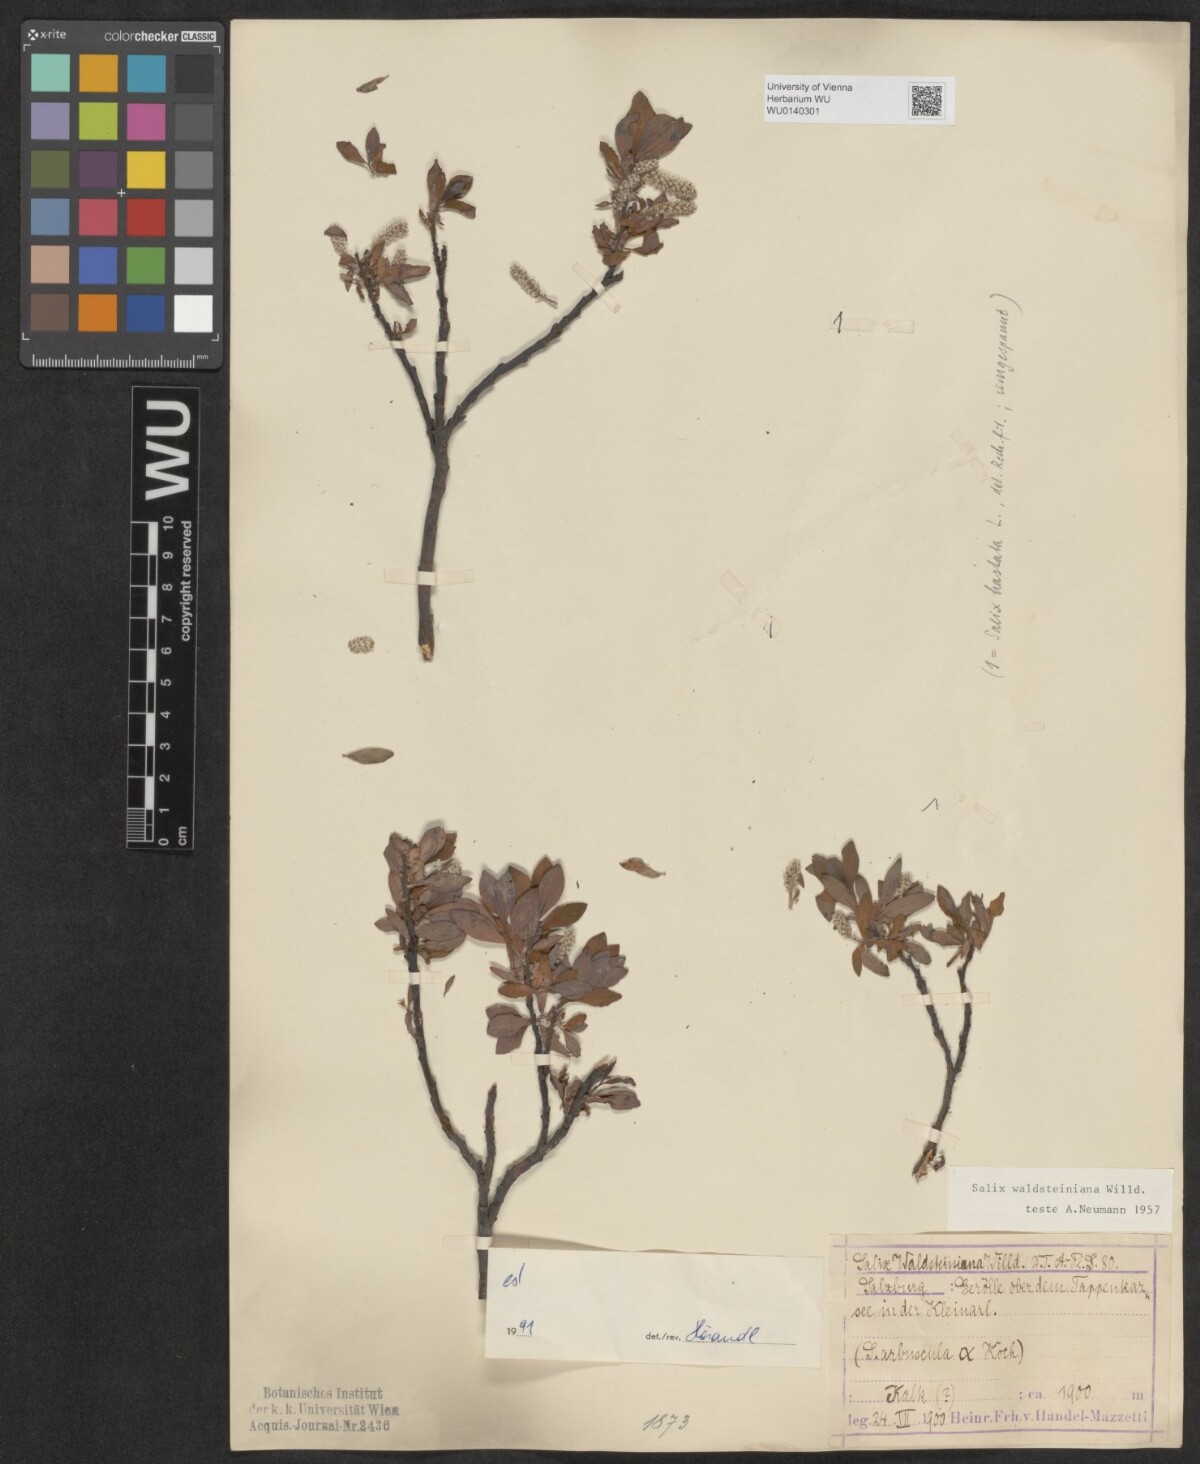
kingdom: Plantae
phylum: Tracheophyta
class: Magnoliopsida
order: Malpighiales
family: Salicaceae
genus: Salix
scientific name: Salix waldsteiniana
